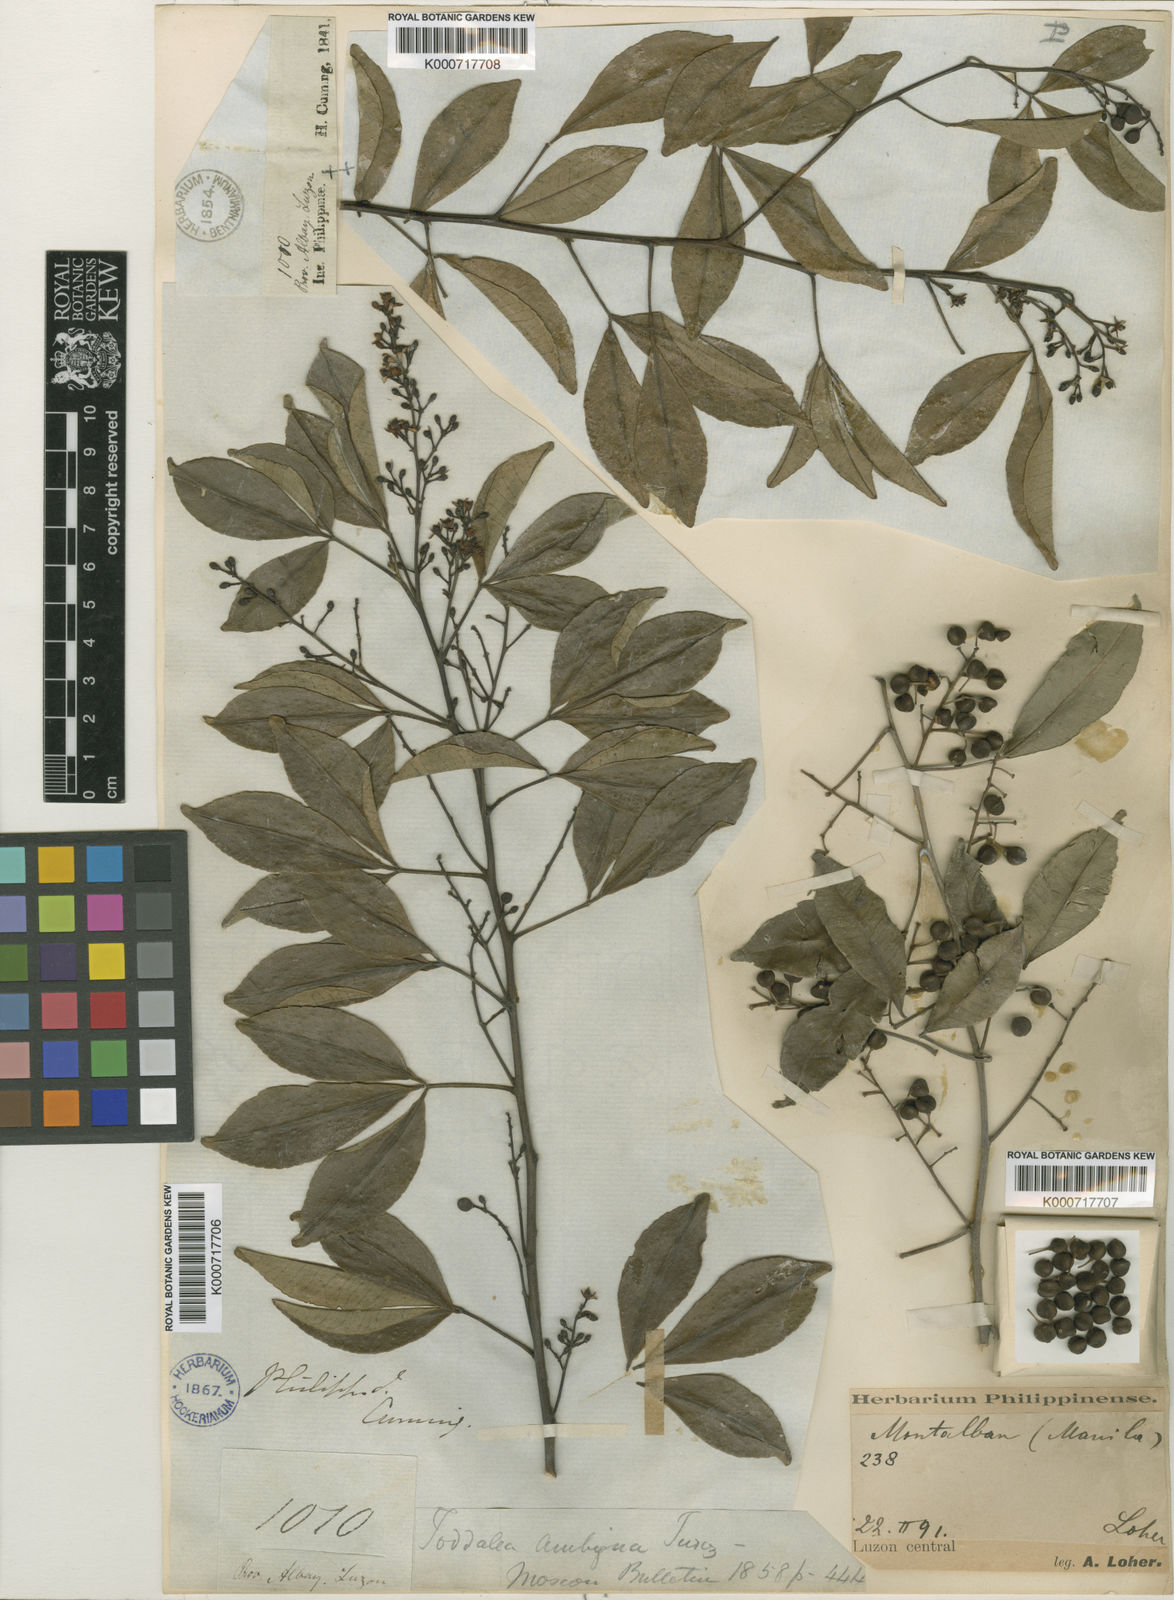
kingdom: Plantae
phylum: Tracheophyta
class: Magnoliopsida
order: Sapindales
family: Rutaceae
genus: Zanthoxylum
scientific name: Zanthoxylum asiaticum
